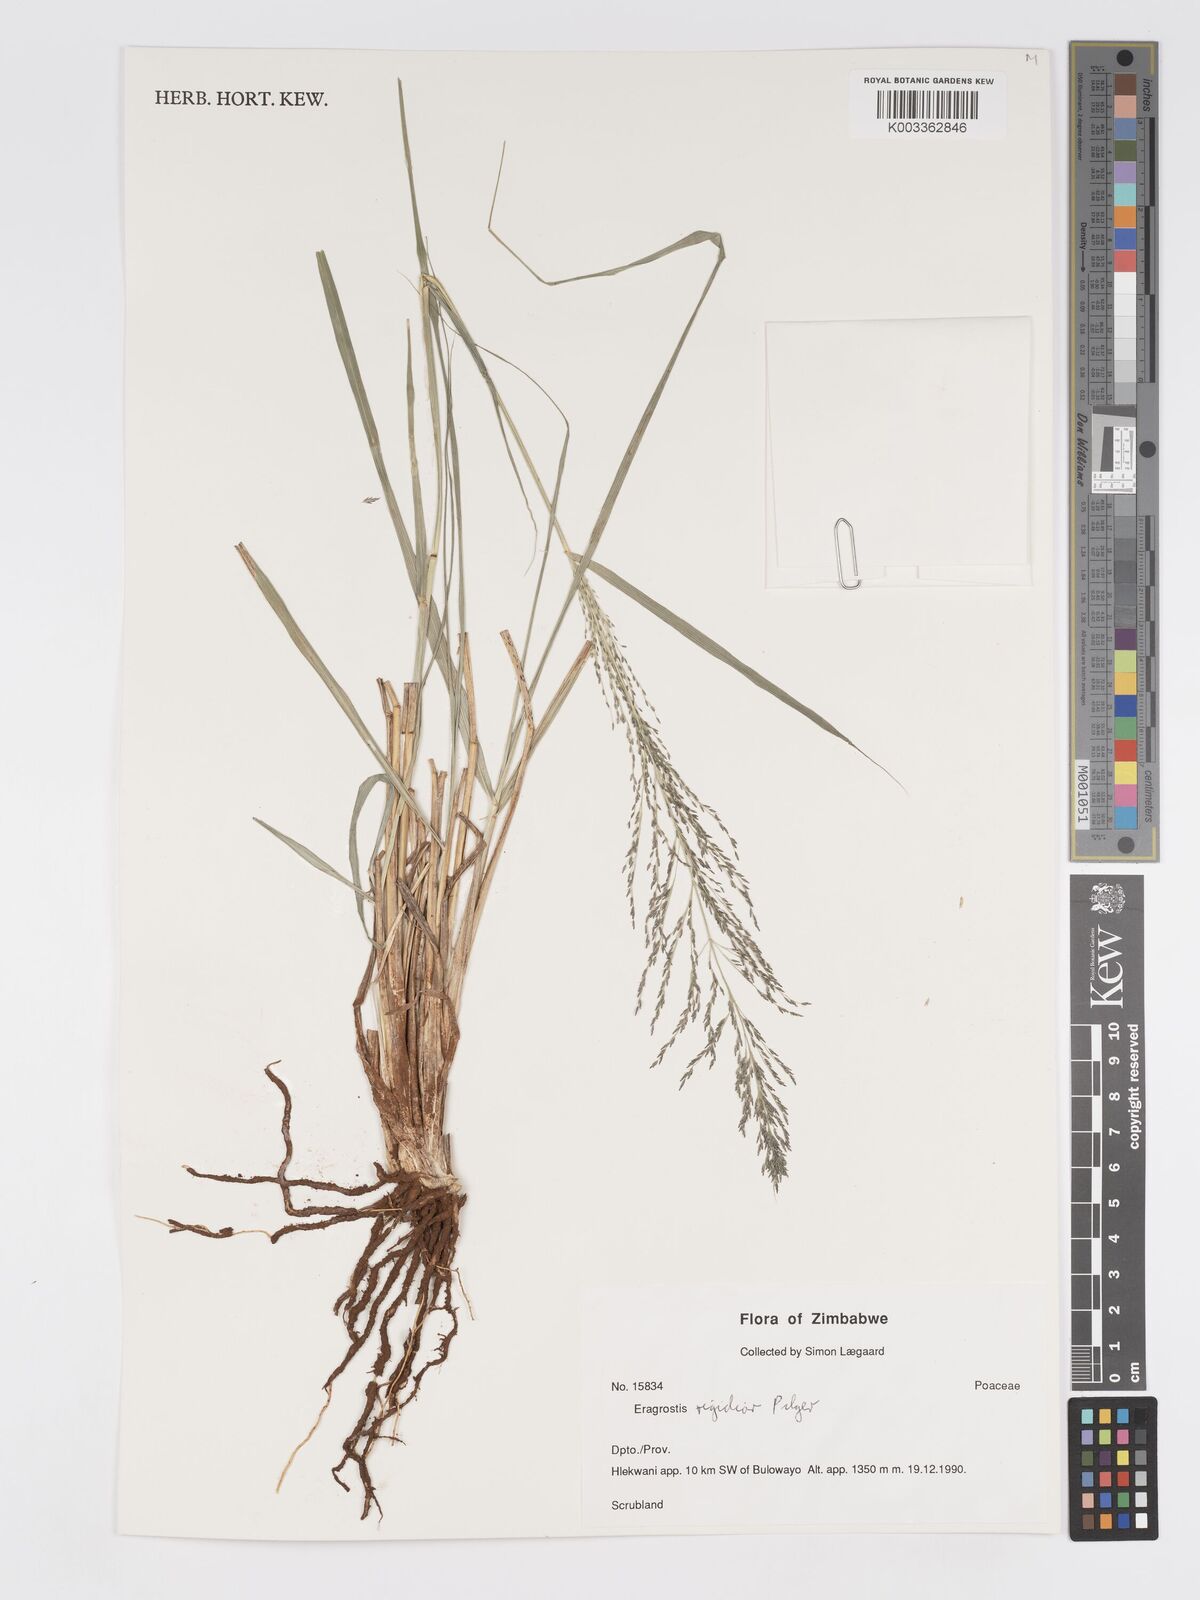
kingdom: Plantae
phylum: Tracheophyta
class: Liliopsida
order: Poales
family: Poaceae
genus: Eragrostis
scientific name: Eragrostis cylindriflora
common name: Cylinderflower lovegrass
